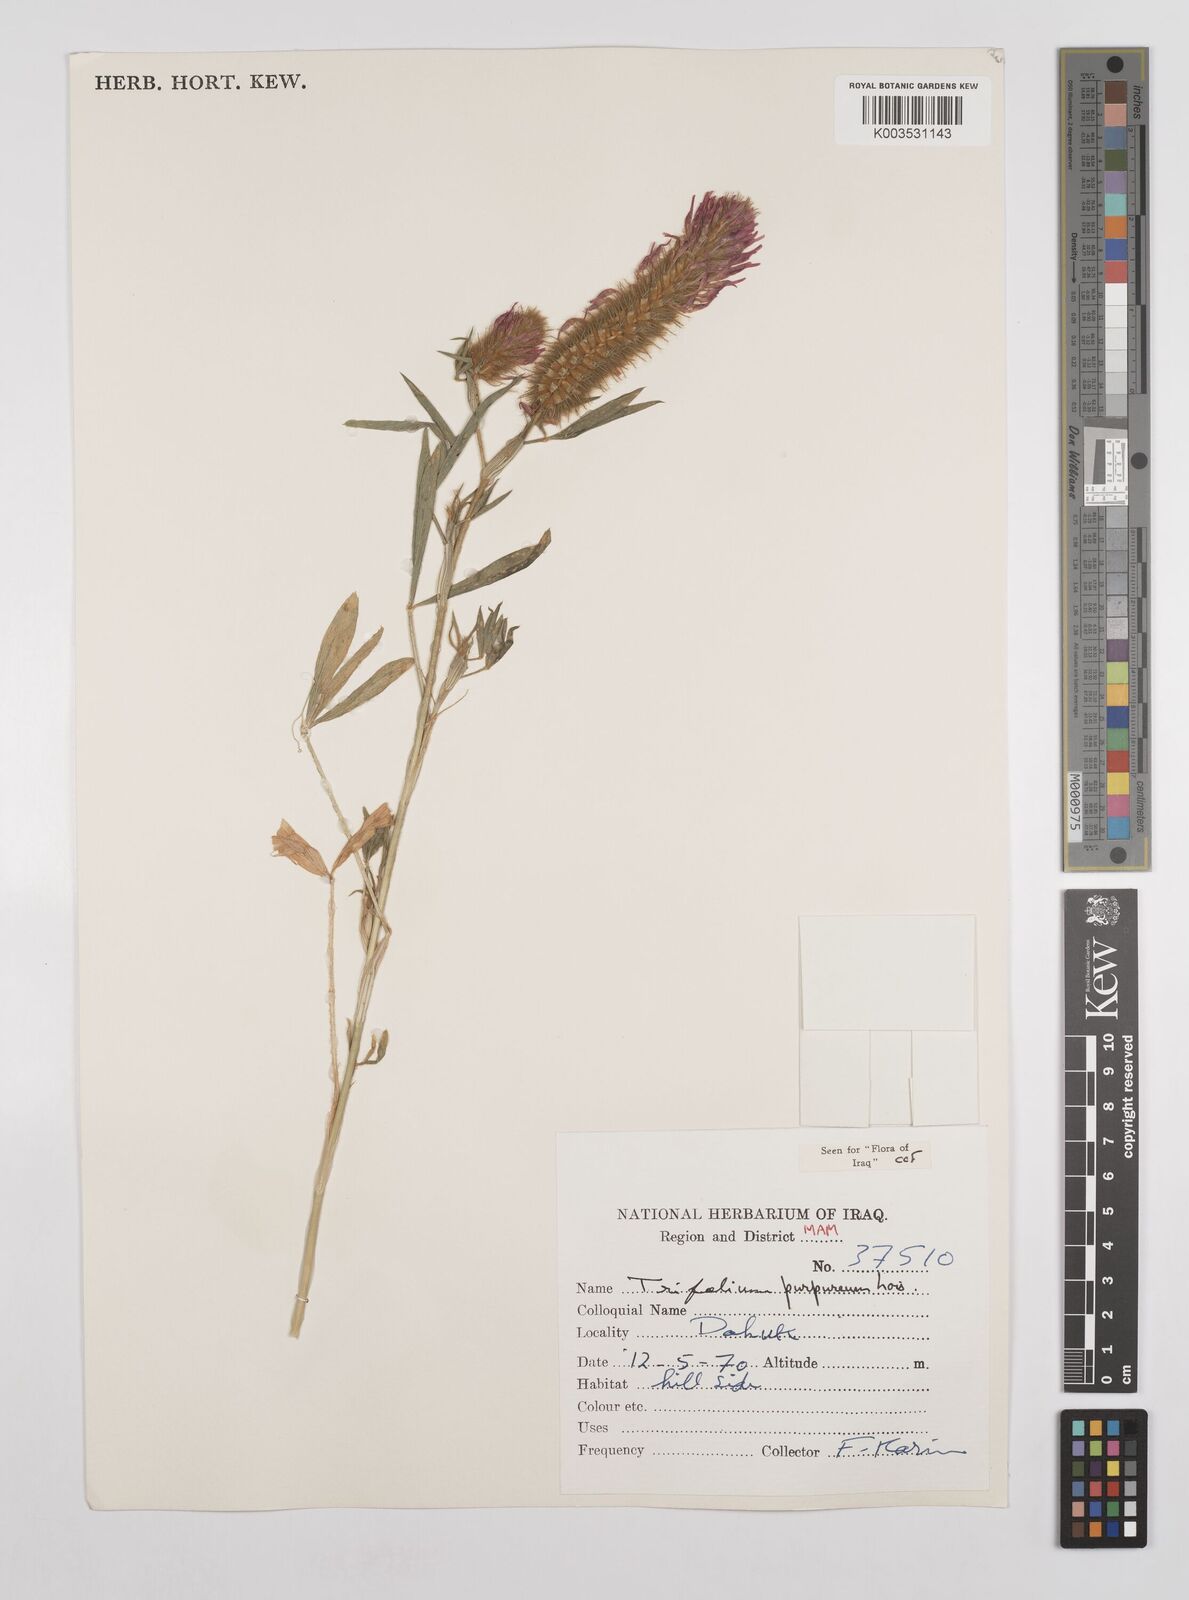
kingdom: Plantae
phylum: Tracheophyta
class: Magnoliopsida
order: Fabales
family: Fabaceae
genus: Trifolium
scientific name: Trifolium purpureum
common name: Purple clover
